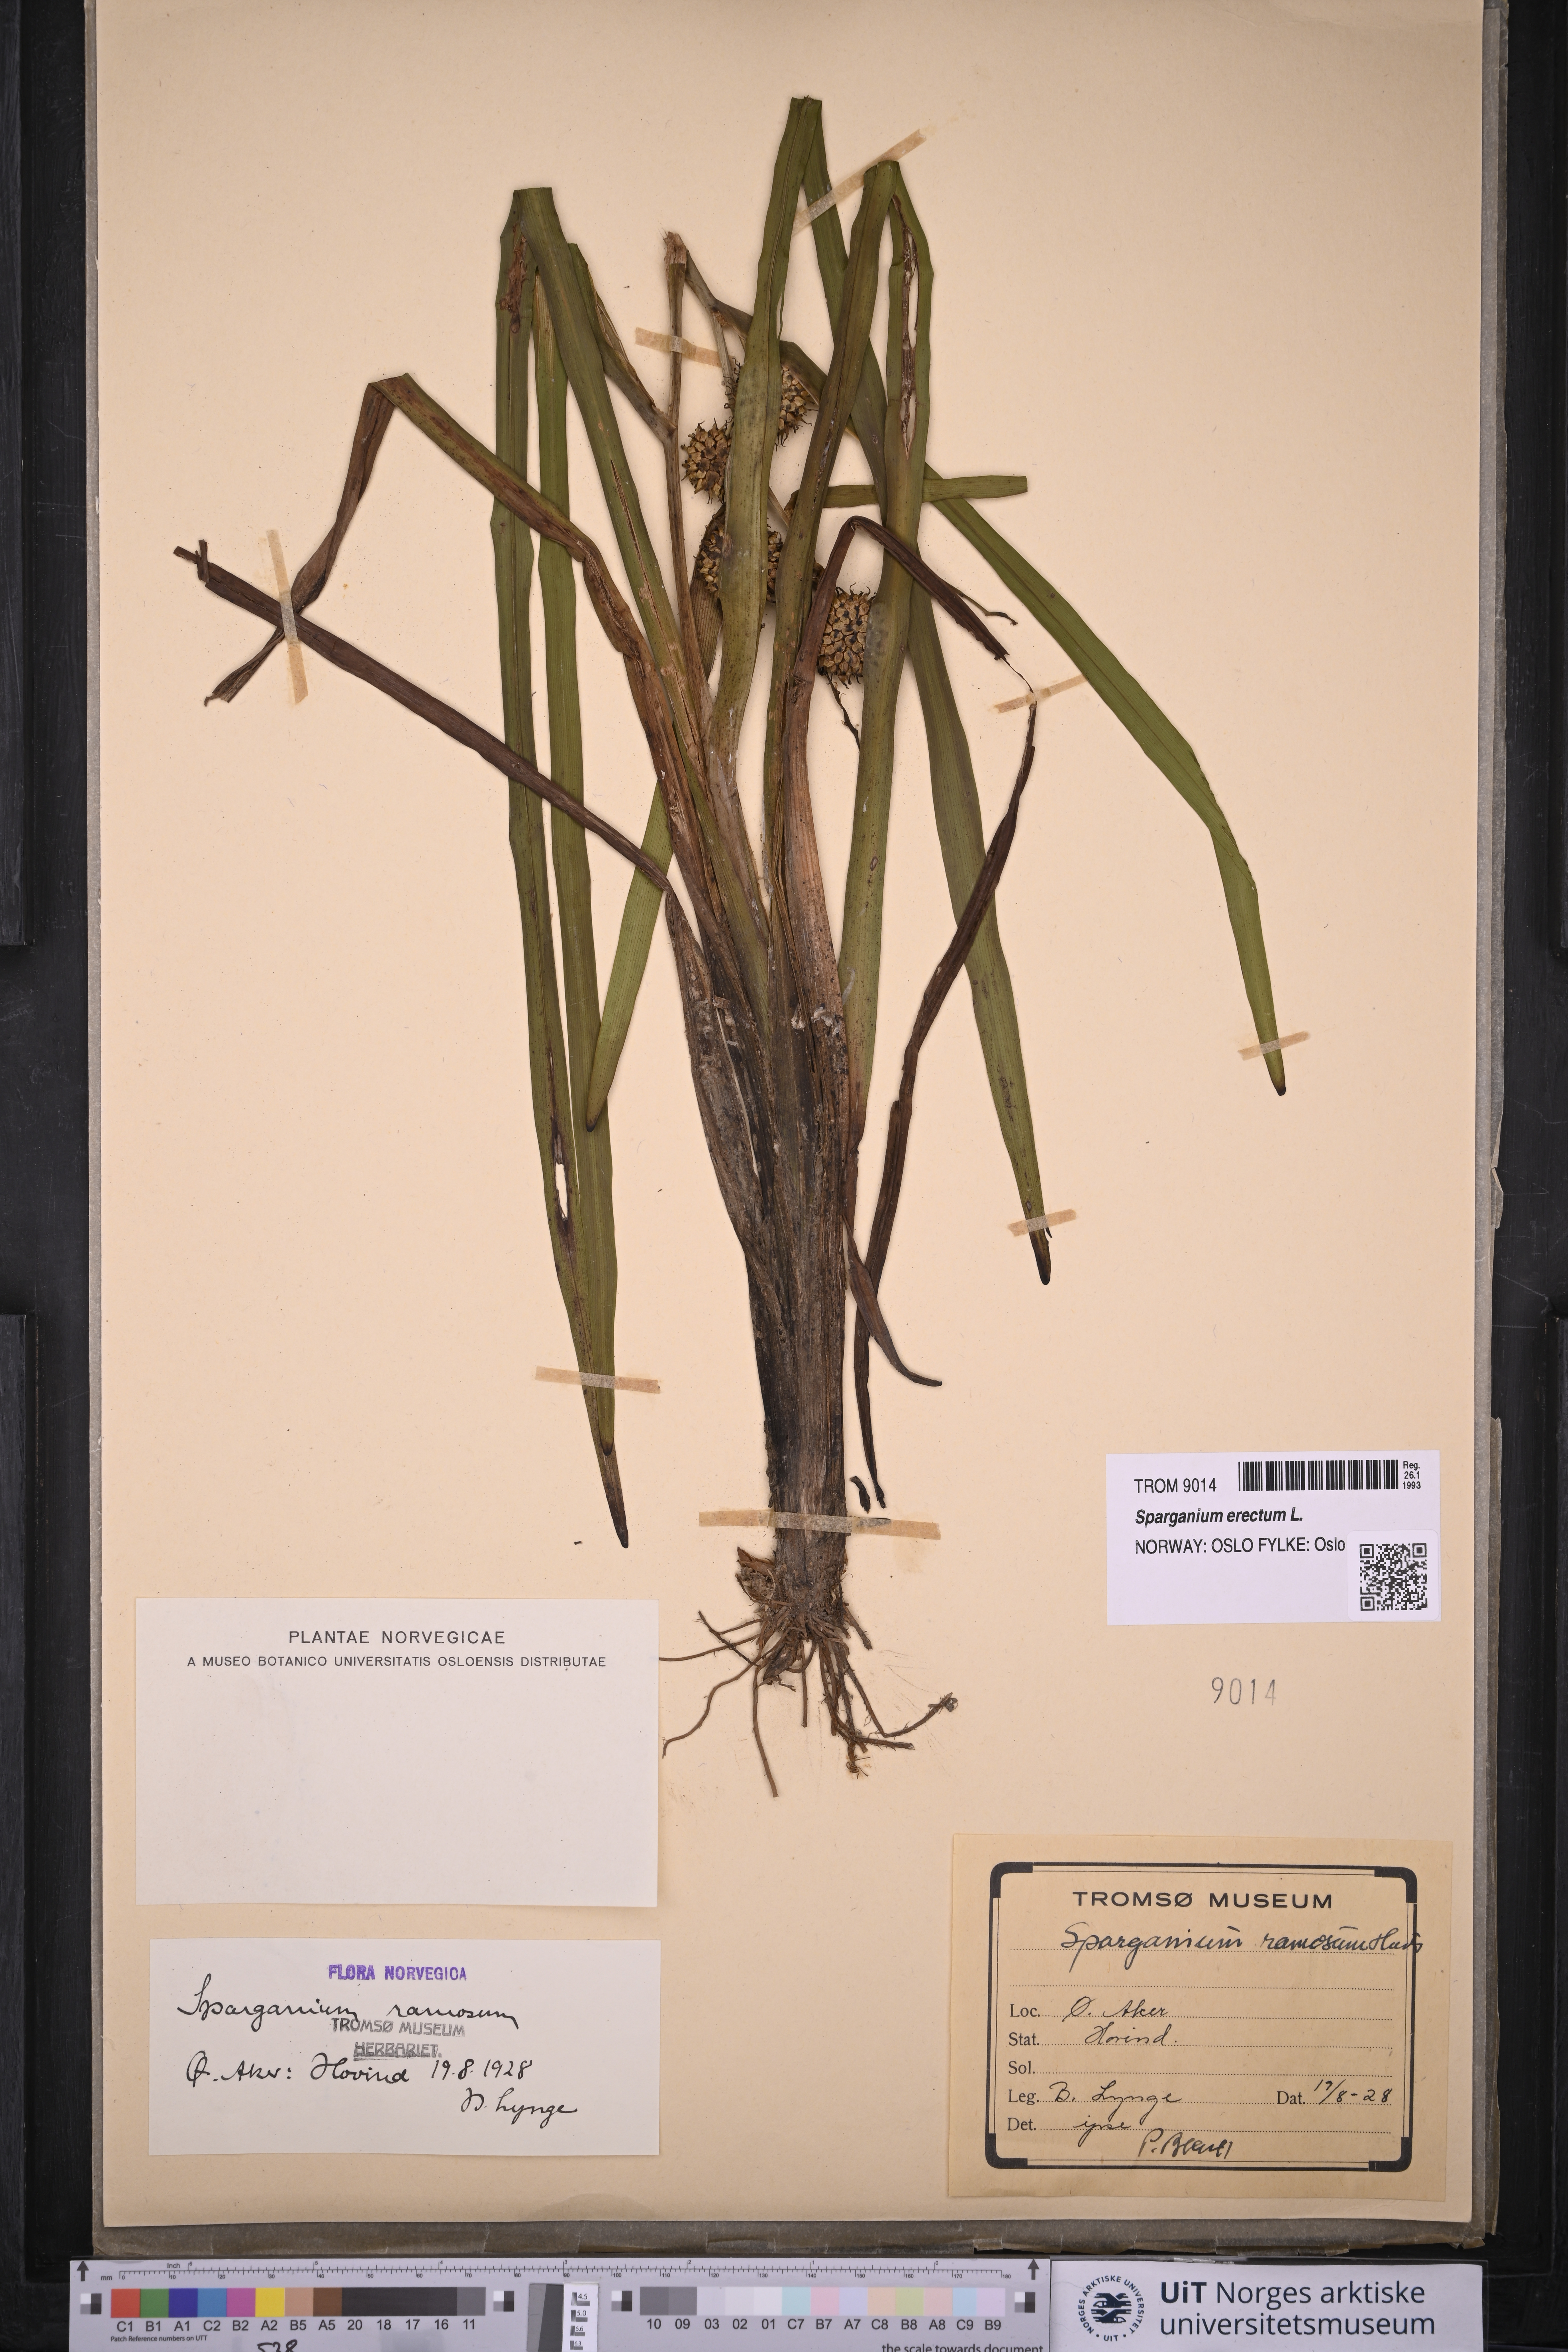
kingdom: Plantae
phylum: Tracheophyta
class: Liliopsida
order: Poales
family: Typhaceae
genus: Sparganium
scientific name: Sparganium erectum
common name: Branched bur-reed
